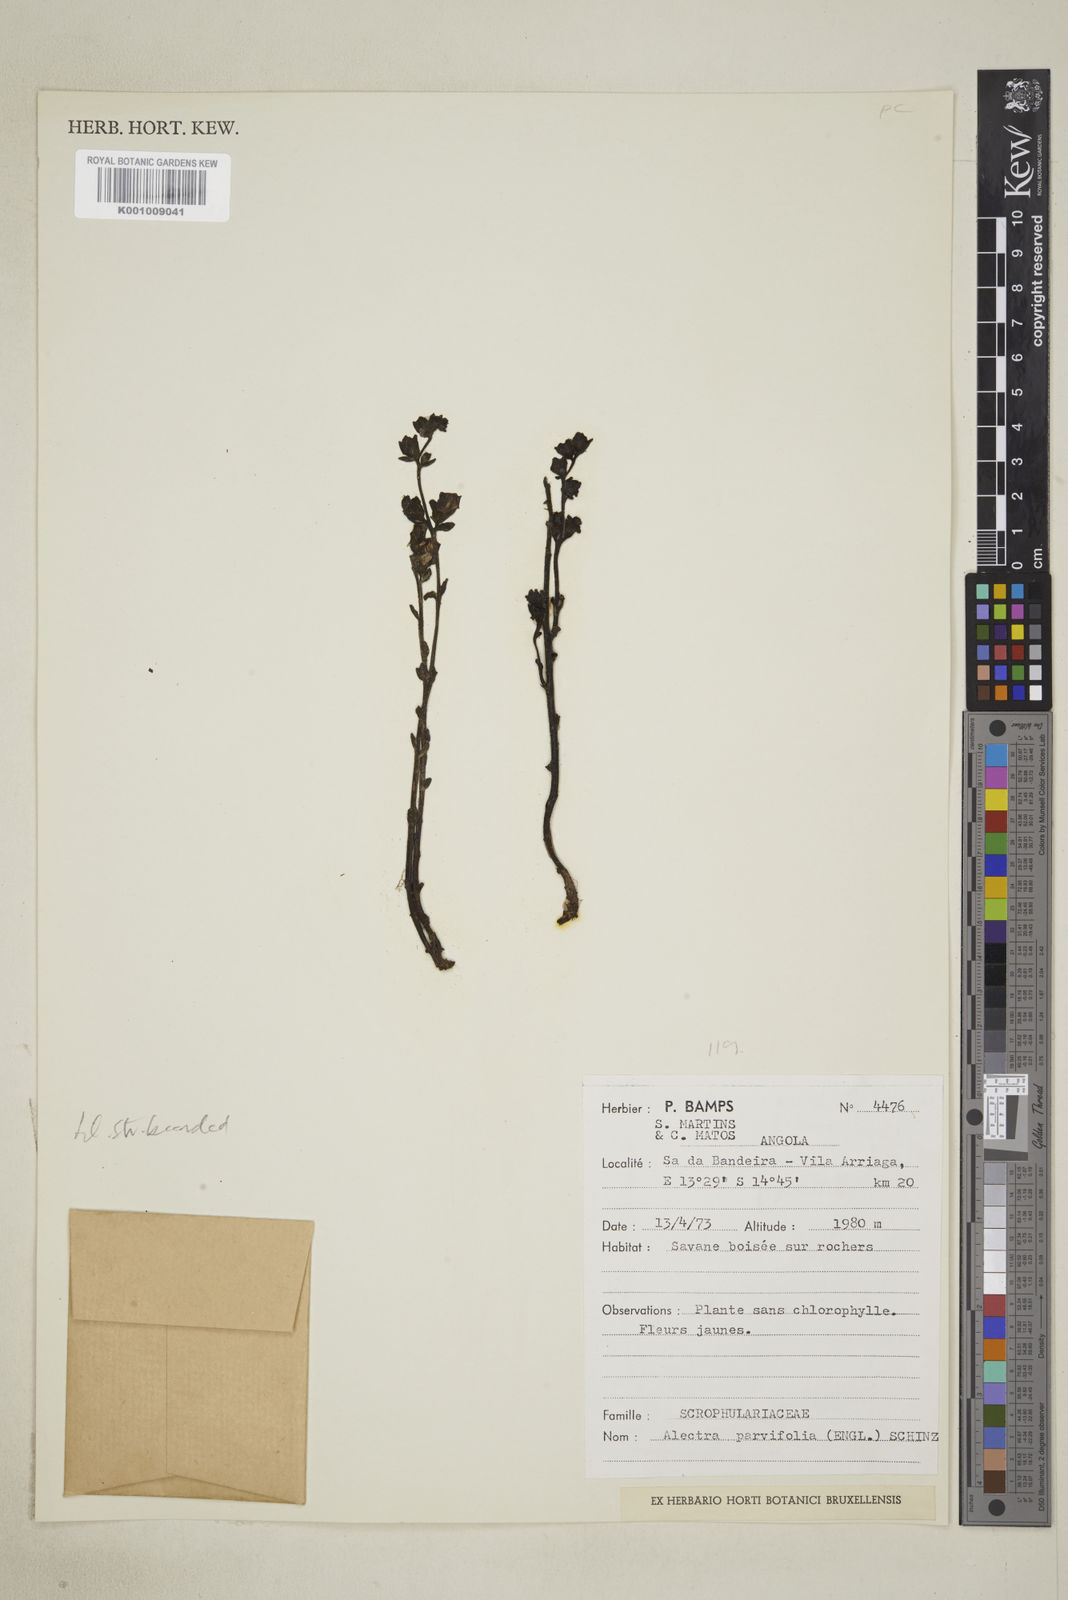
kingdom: Plantae
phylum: Tracheophyta
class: Magnoliopsida
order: Lamiales
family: Orobanchaceae
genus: Alectra
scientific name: Alectra orobanchoides
